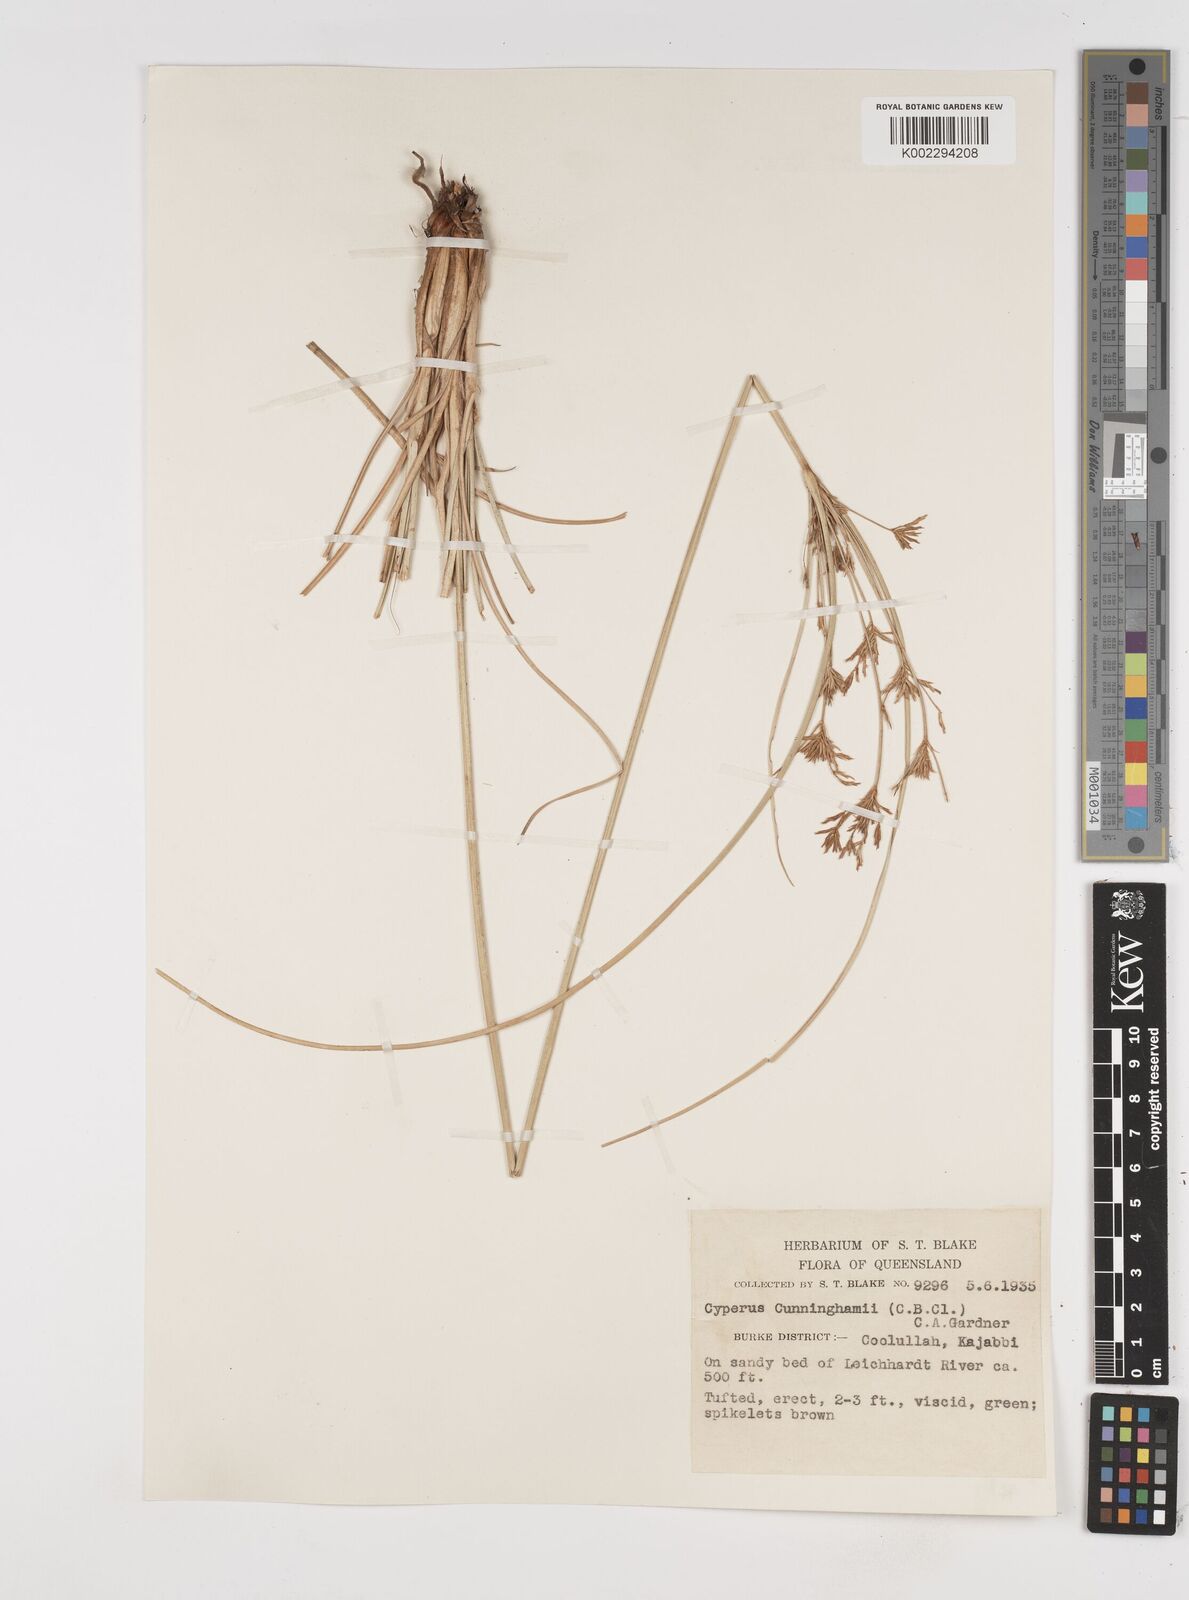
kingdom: Plantae
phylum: Tracheophyta
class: Liliopsida
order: Poales
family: Cyperaceae
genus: Cyperus
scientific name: Cyperus cunninghamii
